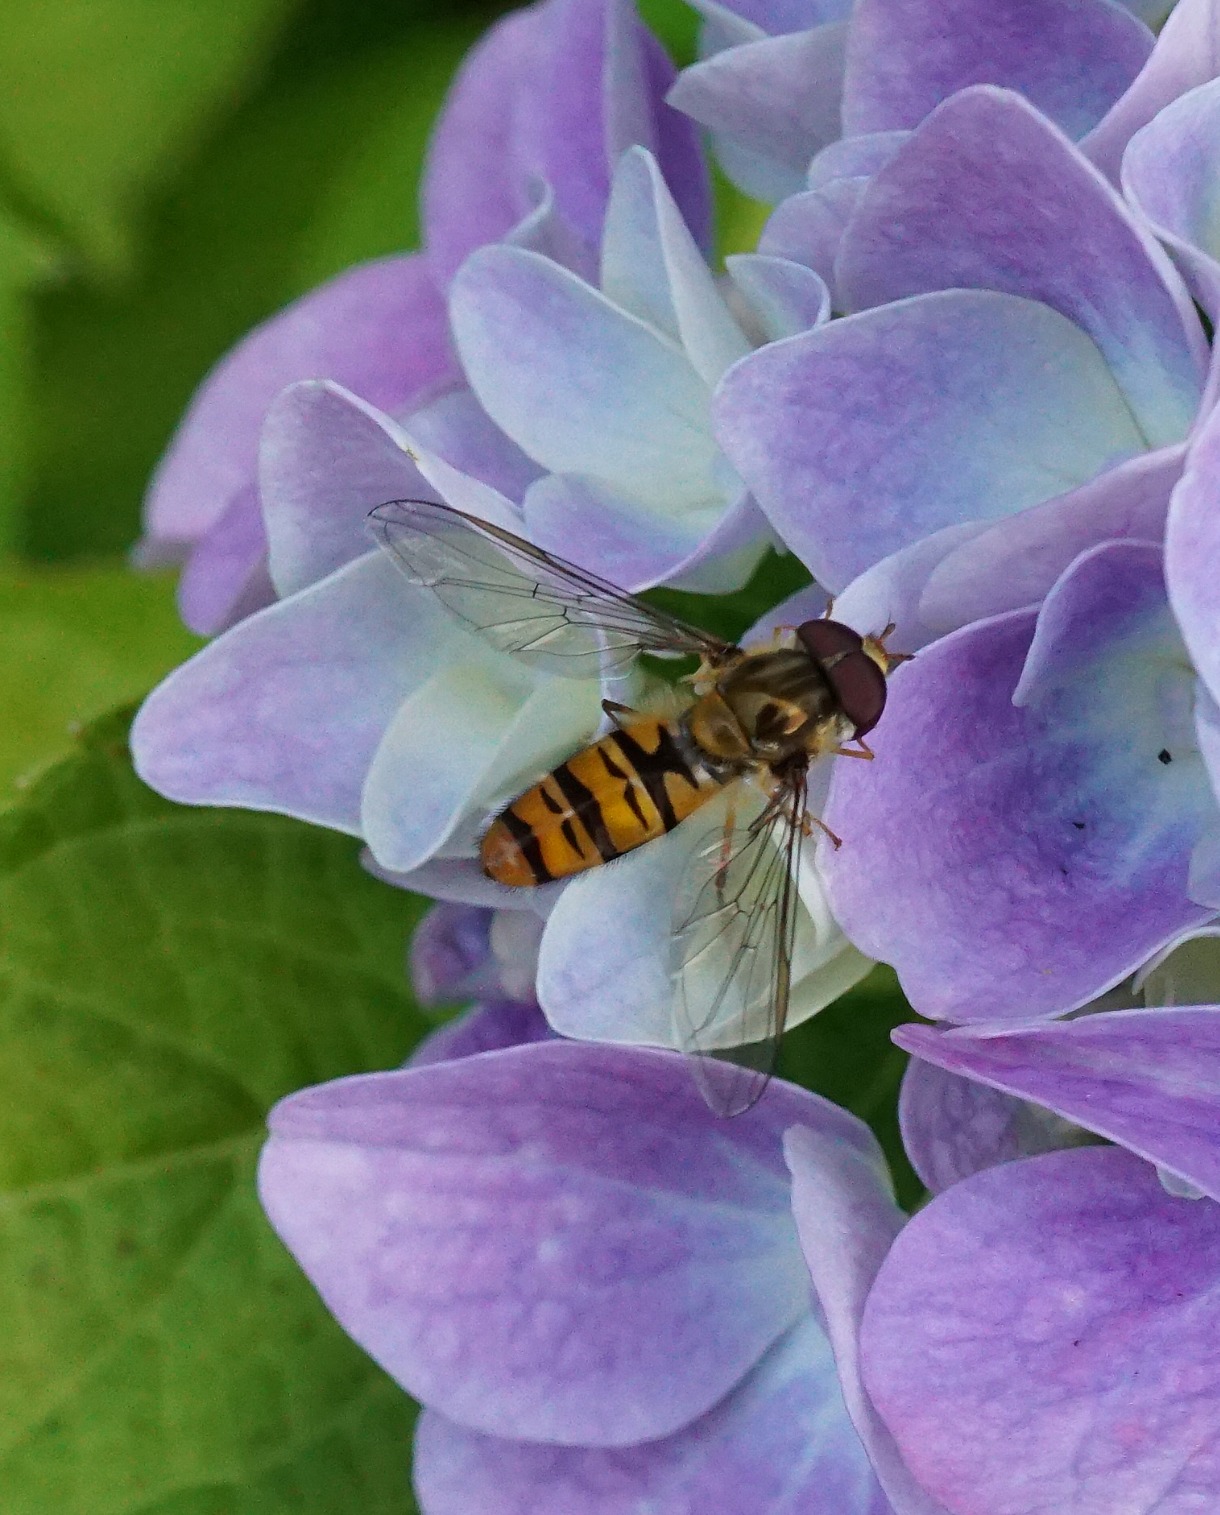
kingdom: Animalia
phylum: Arthropoda
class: Insecta
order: Diptera
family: Syrphidae
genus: Episyrphus
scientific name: Episyrphus balteatus
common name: Dobbeltbåndet svirreflue
